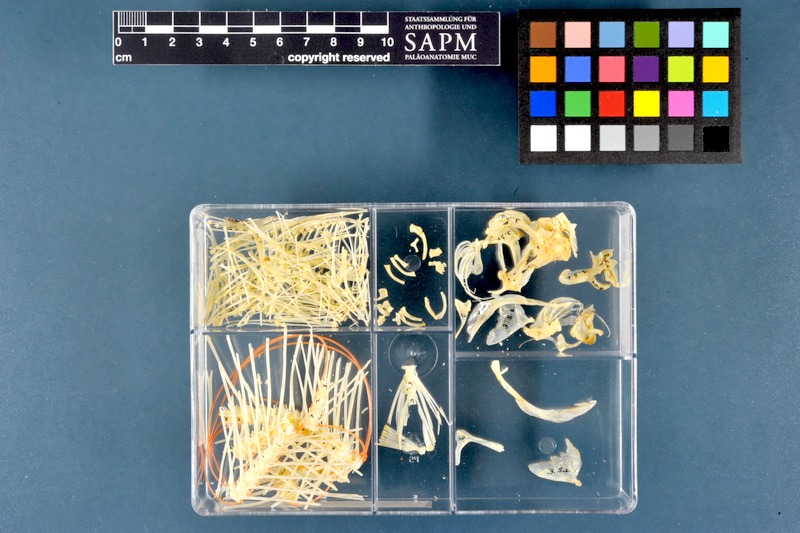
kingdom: Animalia
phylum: Chordata
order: Pleuronectiformes
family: Soleidae
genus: Solea
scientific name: Solea solea
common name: Sole
